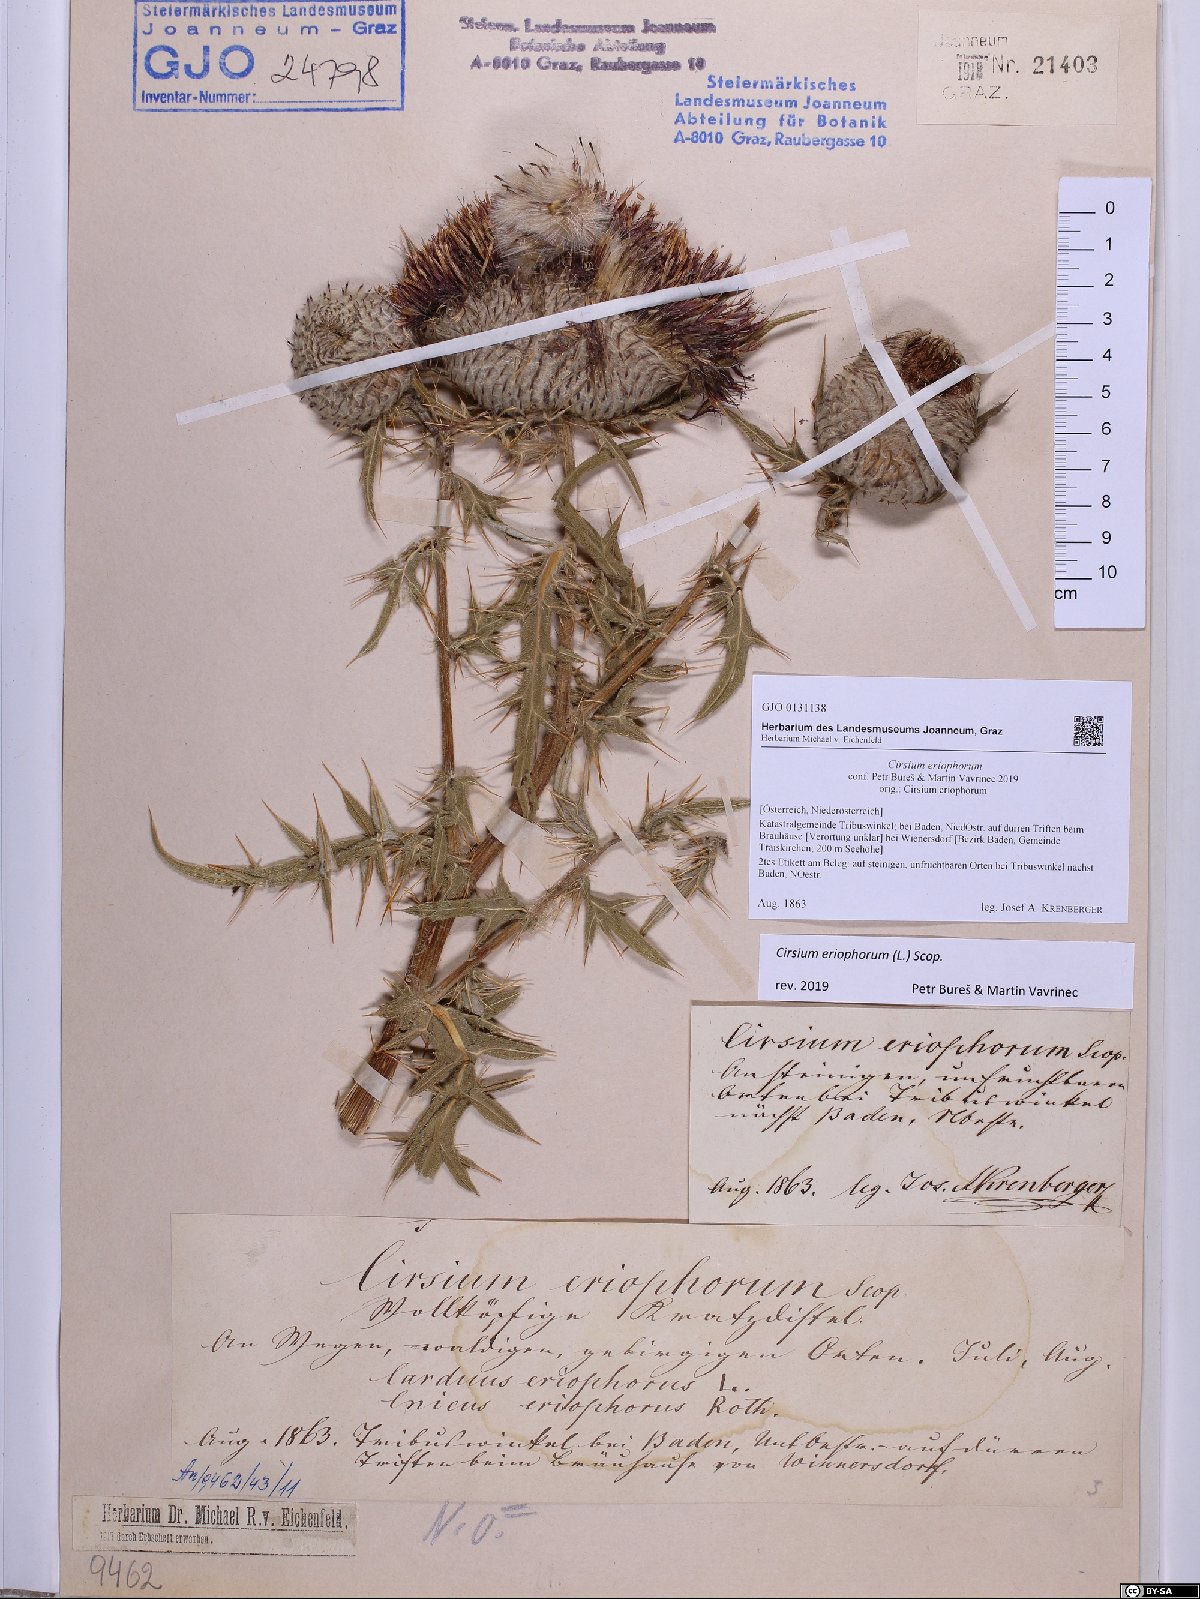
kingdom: Plantae
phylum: Tracheophyta
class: Magnoliopsida
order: Asterales
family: Asteraceae
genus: Lophiolepis
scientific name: Lophiolepis eriophora
